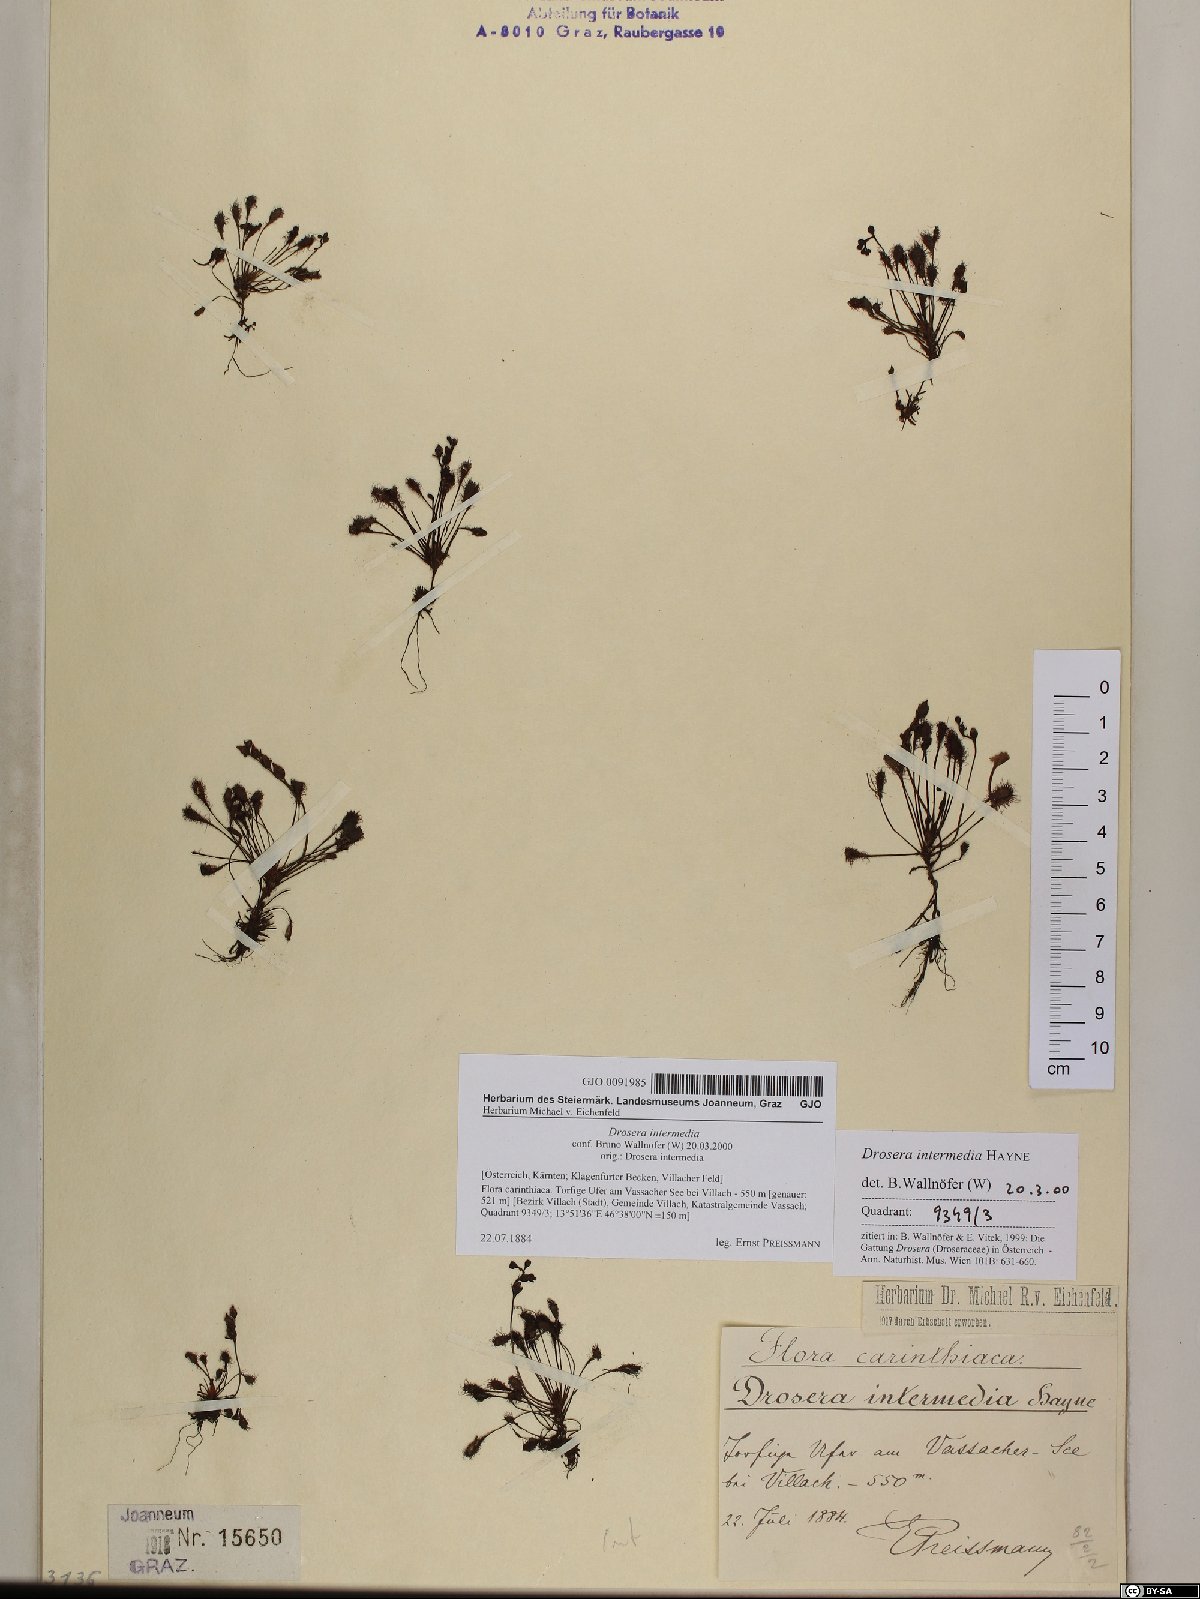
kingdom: Plantae
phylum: Tracheophyta
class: Magnoliopsida
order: Caryophyllales
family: Droseraceae
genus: Drosera
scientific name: Drosera intermedia
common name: Oblong-leaved sundew
